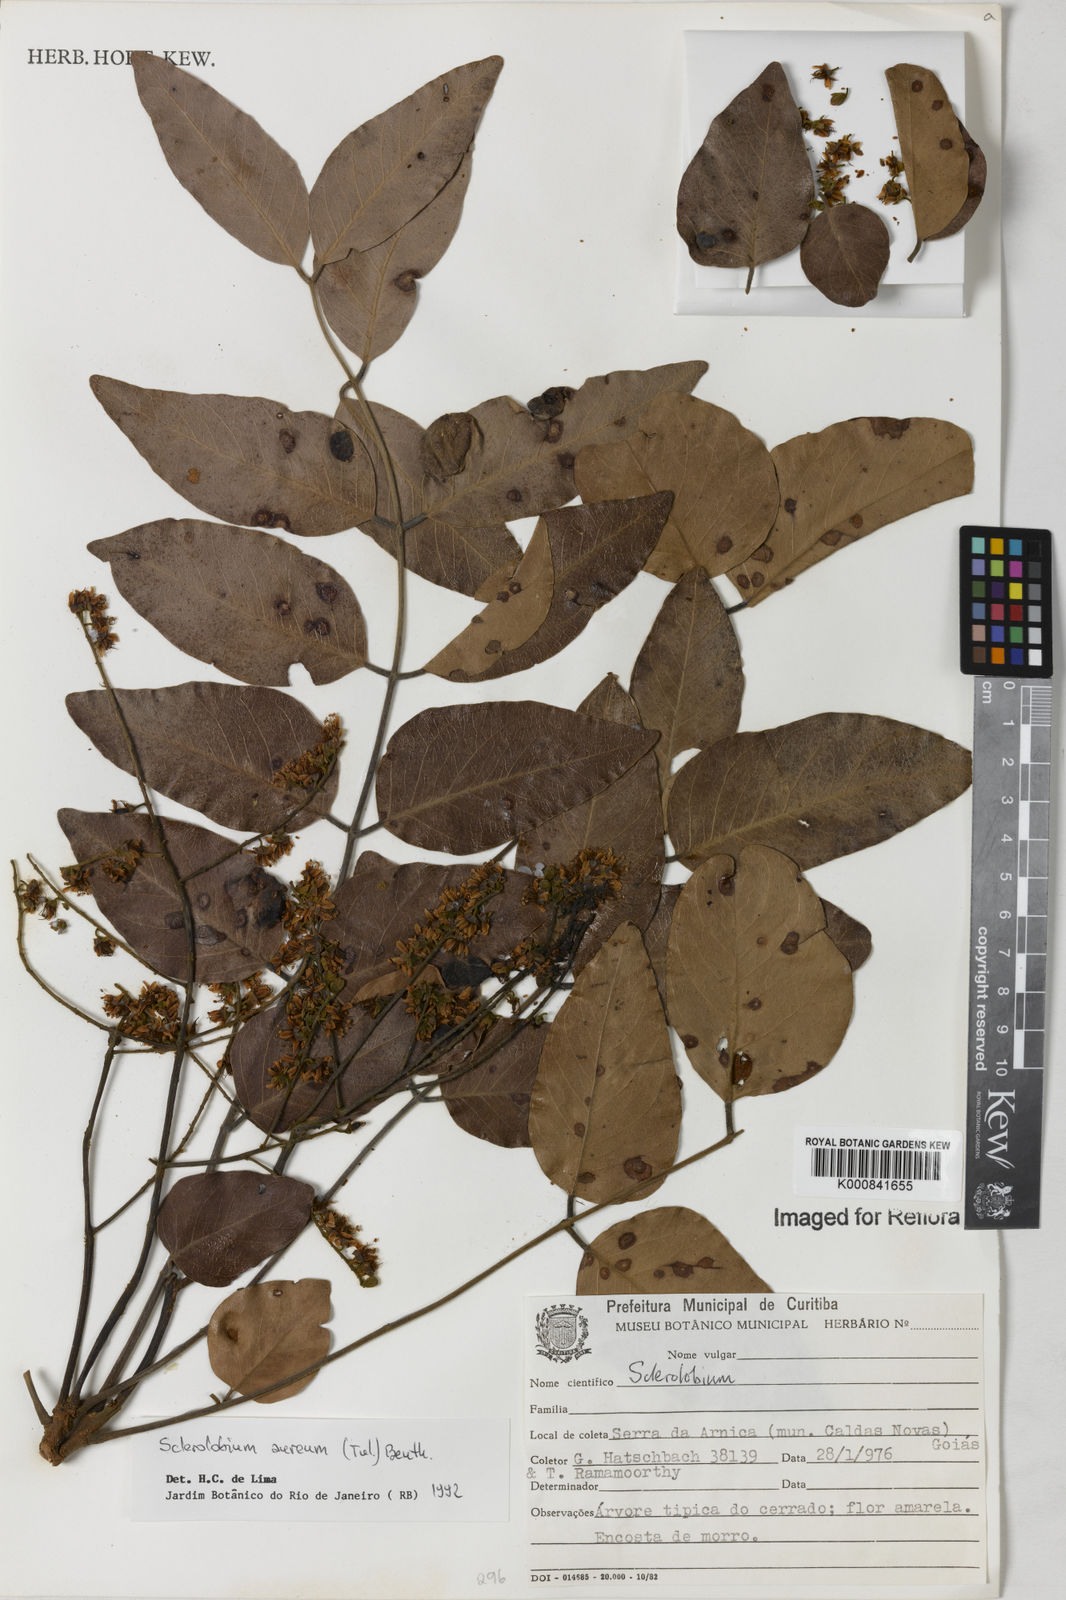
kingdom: Plantae
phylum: Tracheophyta
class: Magnoliopsida
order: Fabales
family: Fabaceae
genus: Tachigali
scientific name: Tachigali aurea
